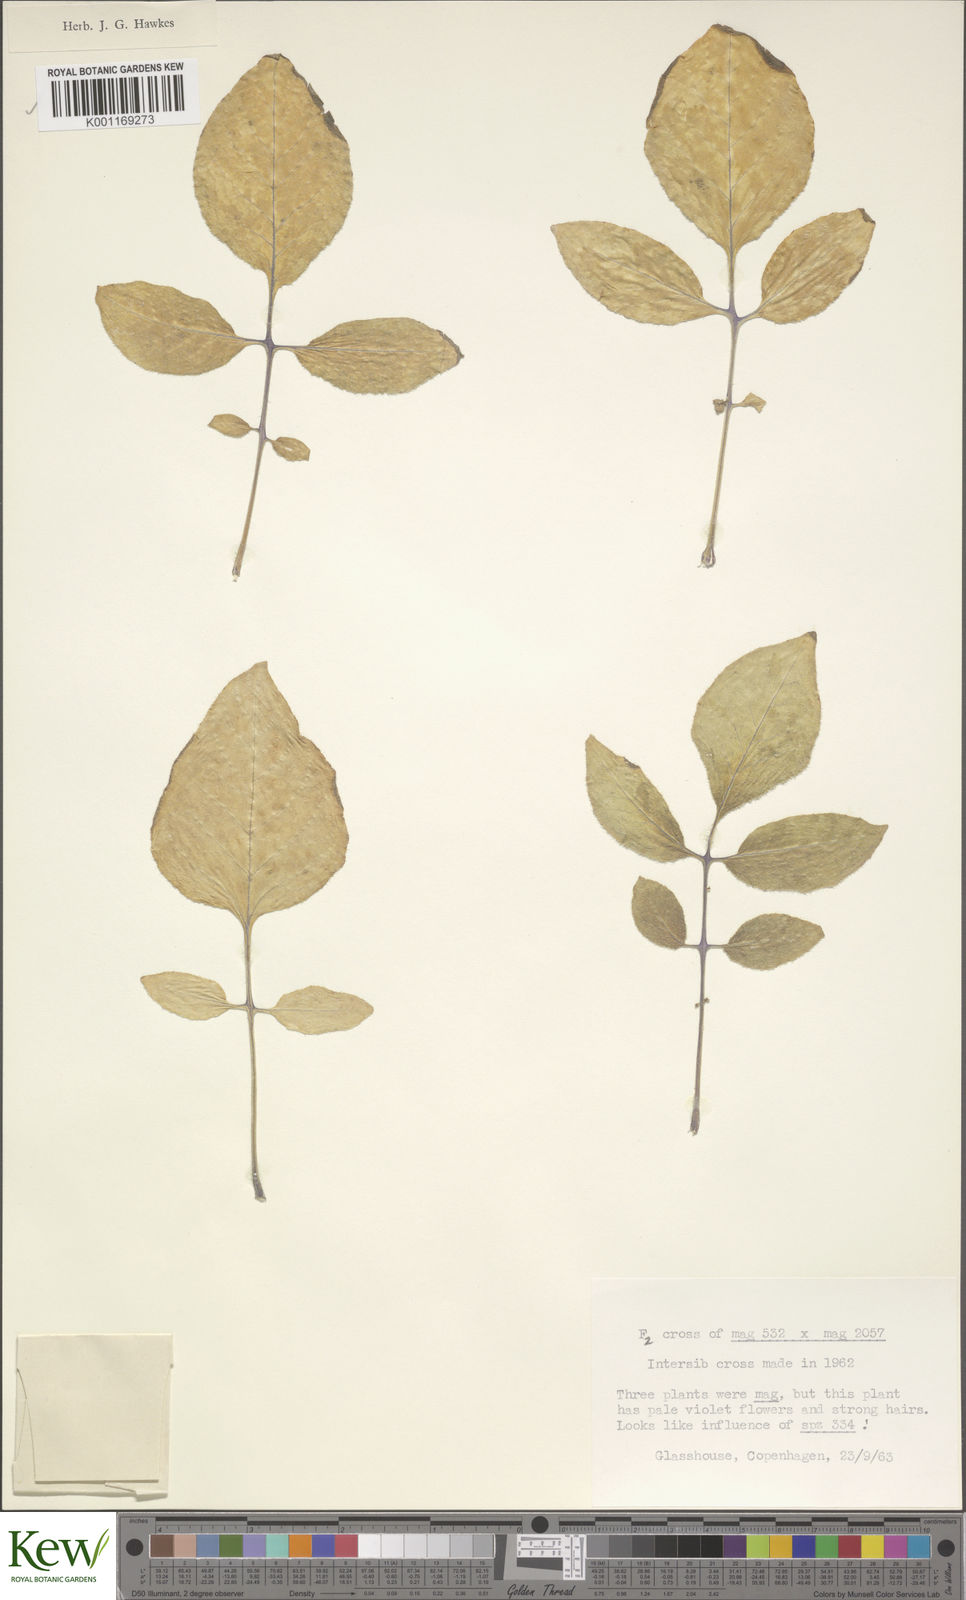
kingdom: Plantae
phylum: Tracheophyta
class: Magnoliopsida
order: Solanales
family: Solanaceae
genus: Solanum
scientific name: Solanum maglia
